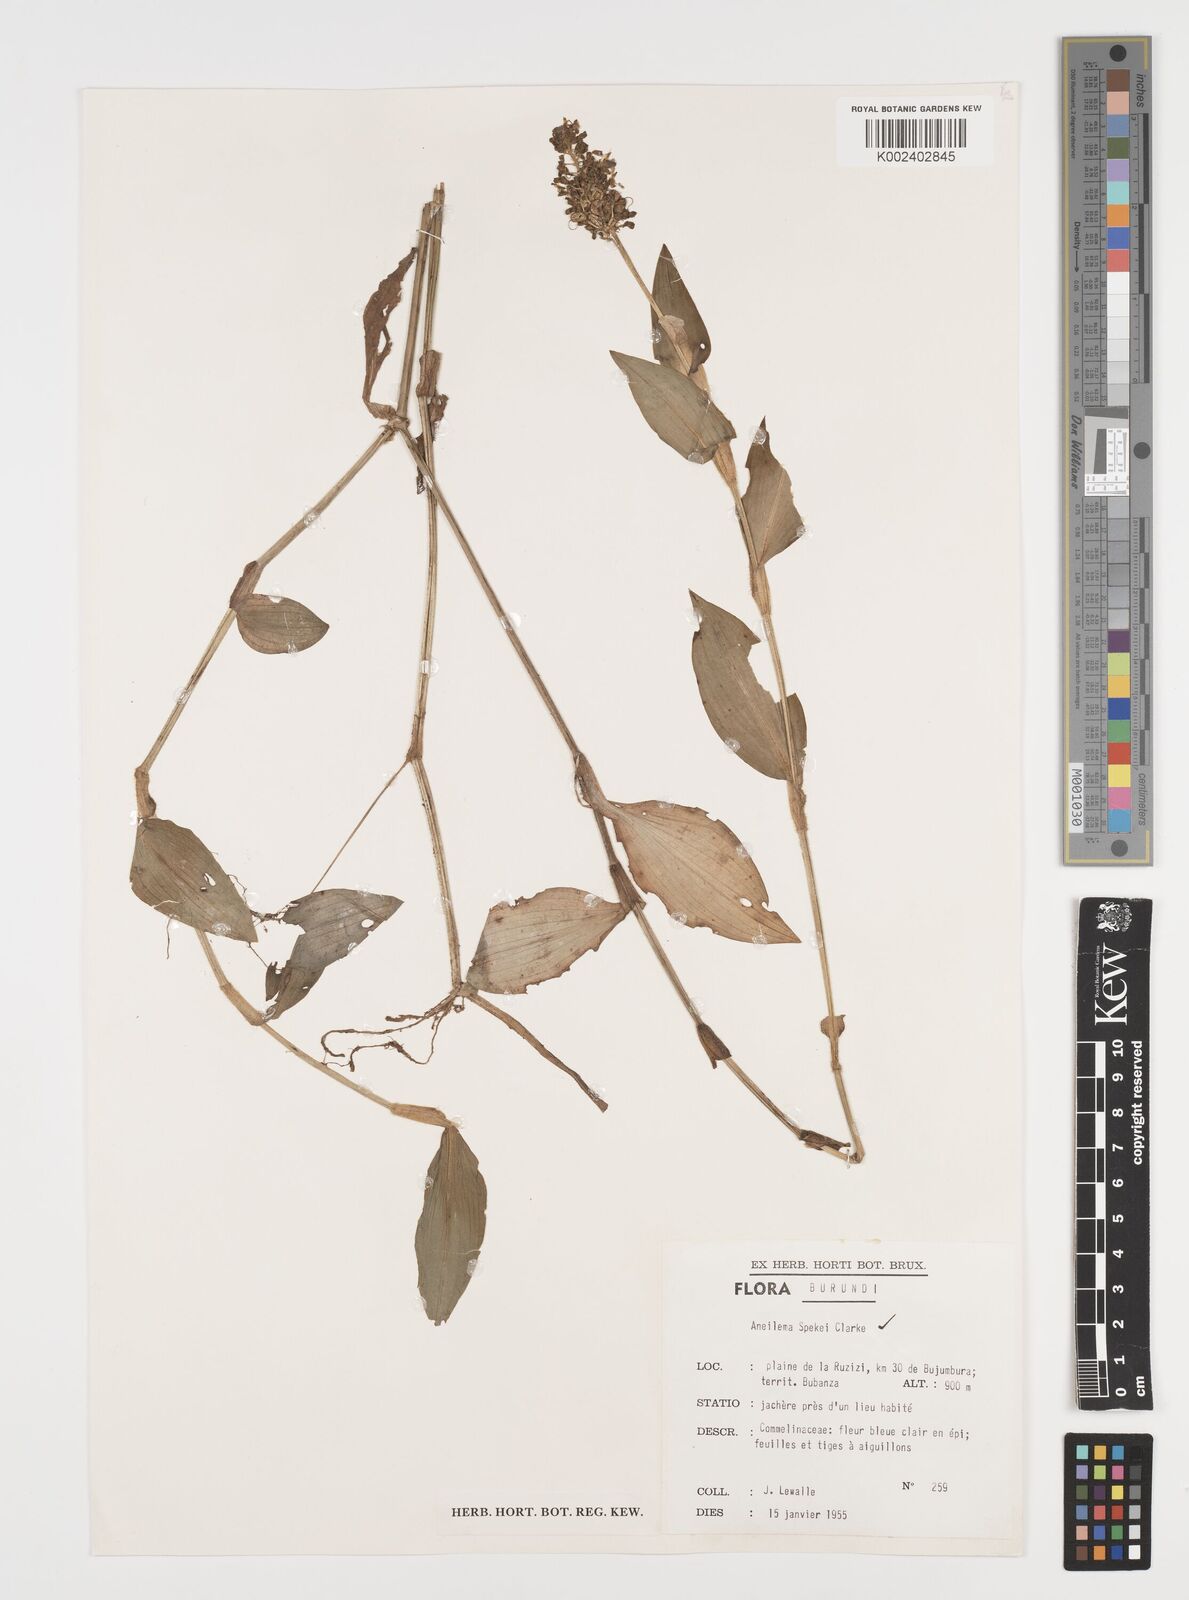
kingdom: Plantae
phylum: Tracheophyta
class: Liliopsida
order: Commelinales
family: Commelinaceae
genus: Aneilema
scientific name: Aneilema spekei
